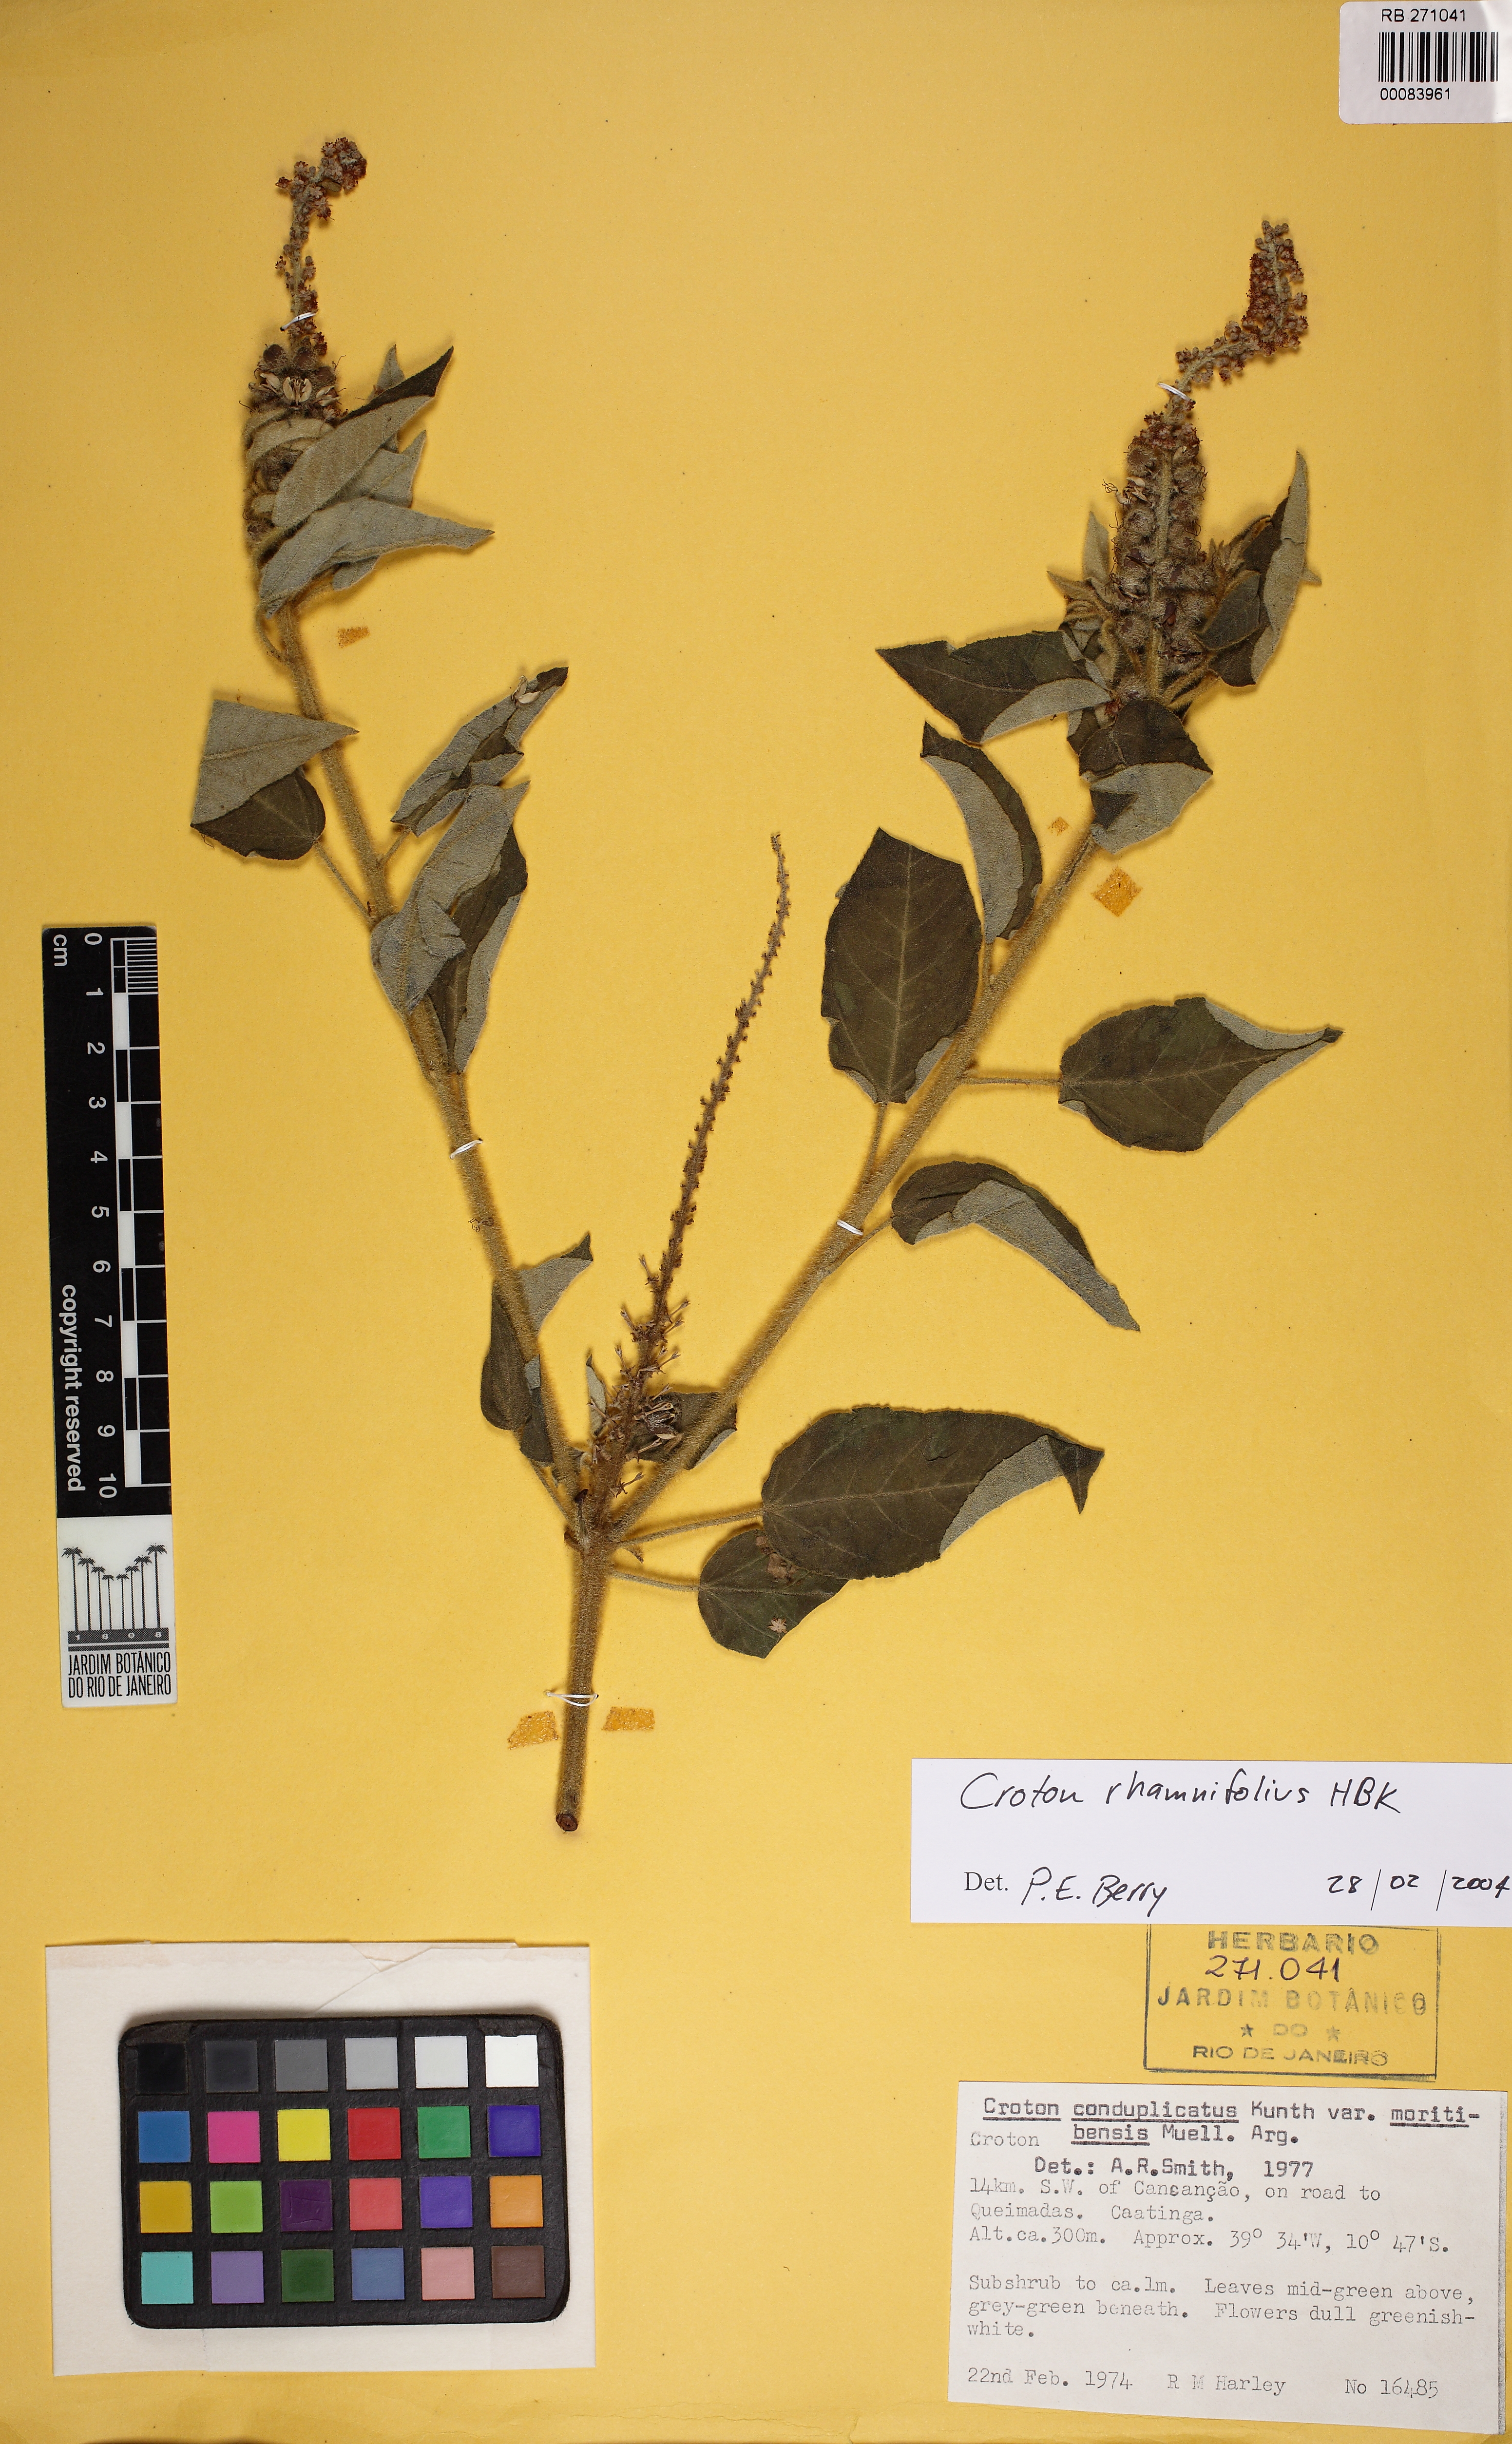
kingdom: Plantae
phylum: Tracheophyta
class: Magnoliopsida
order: Malpighiales
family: Euphorbiaceae
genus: Mallotus
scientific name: Mallotus rhamnifolius
